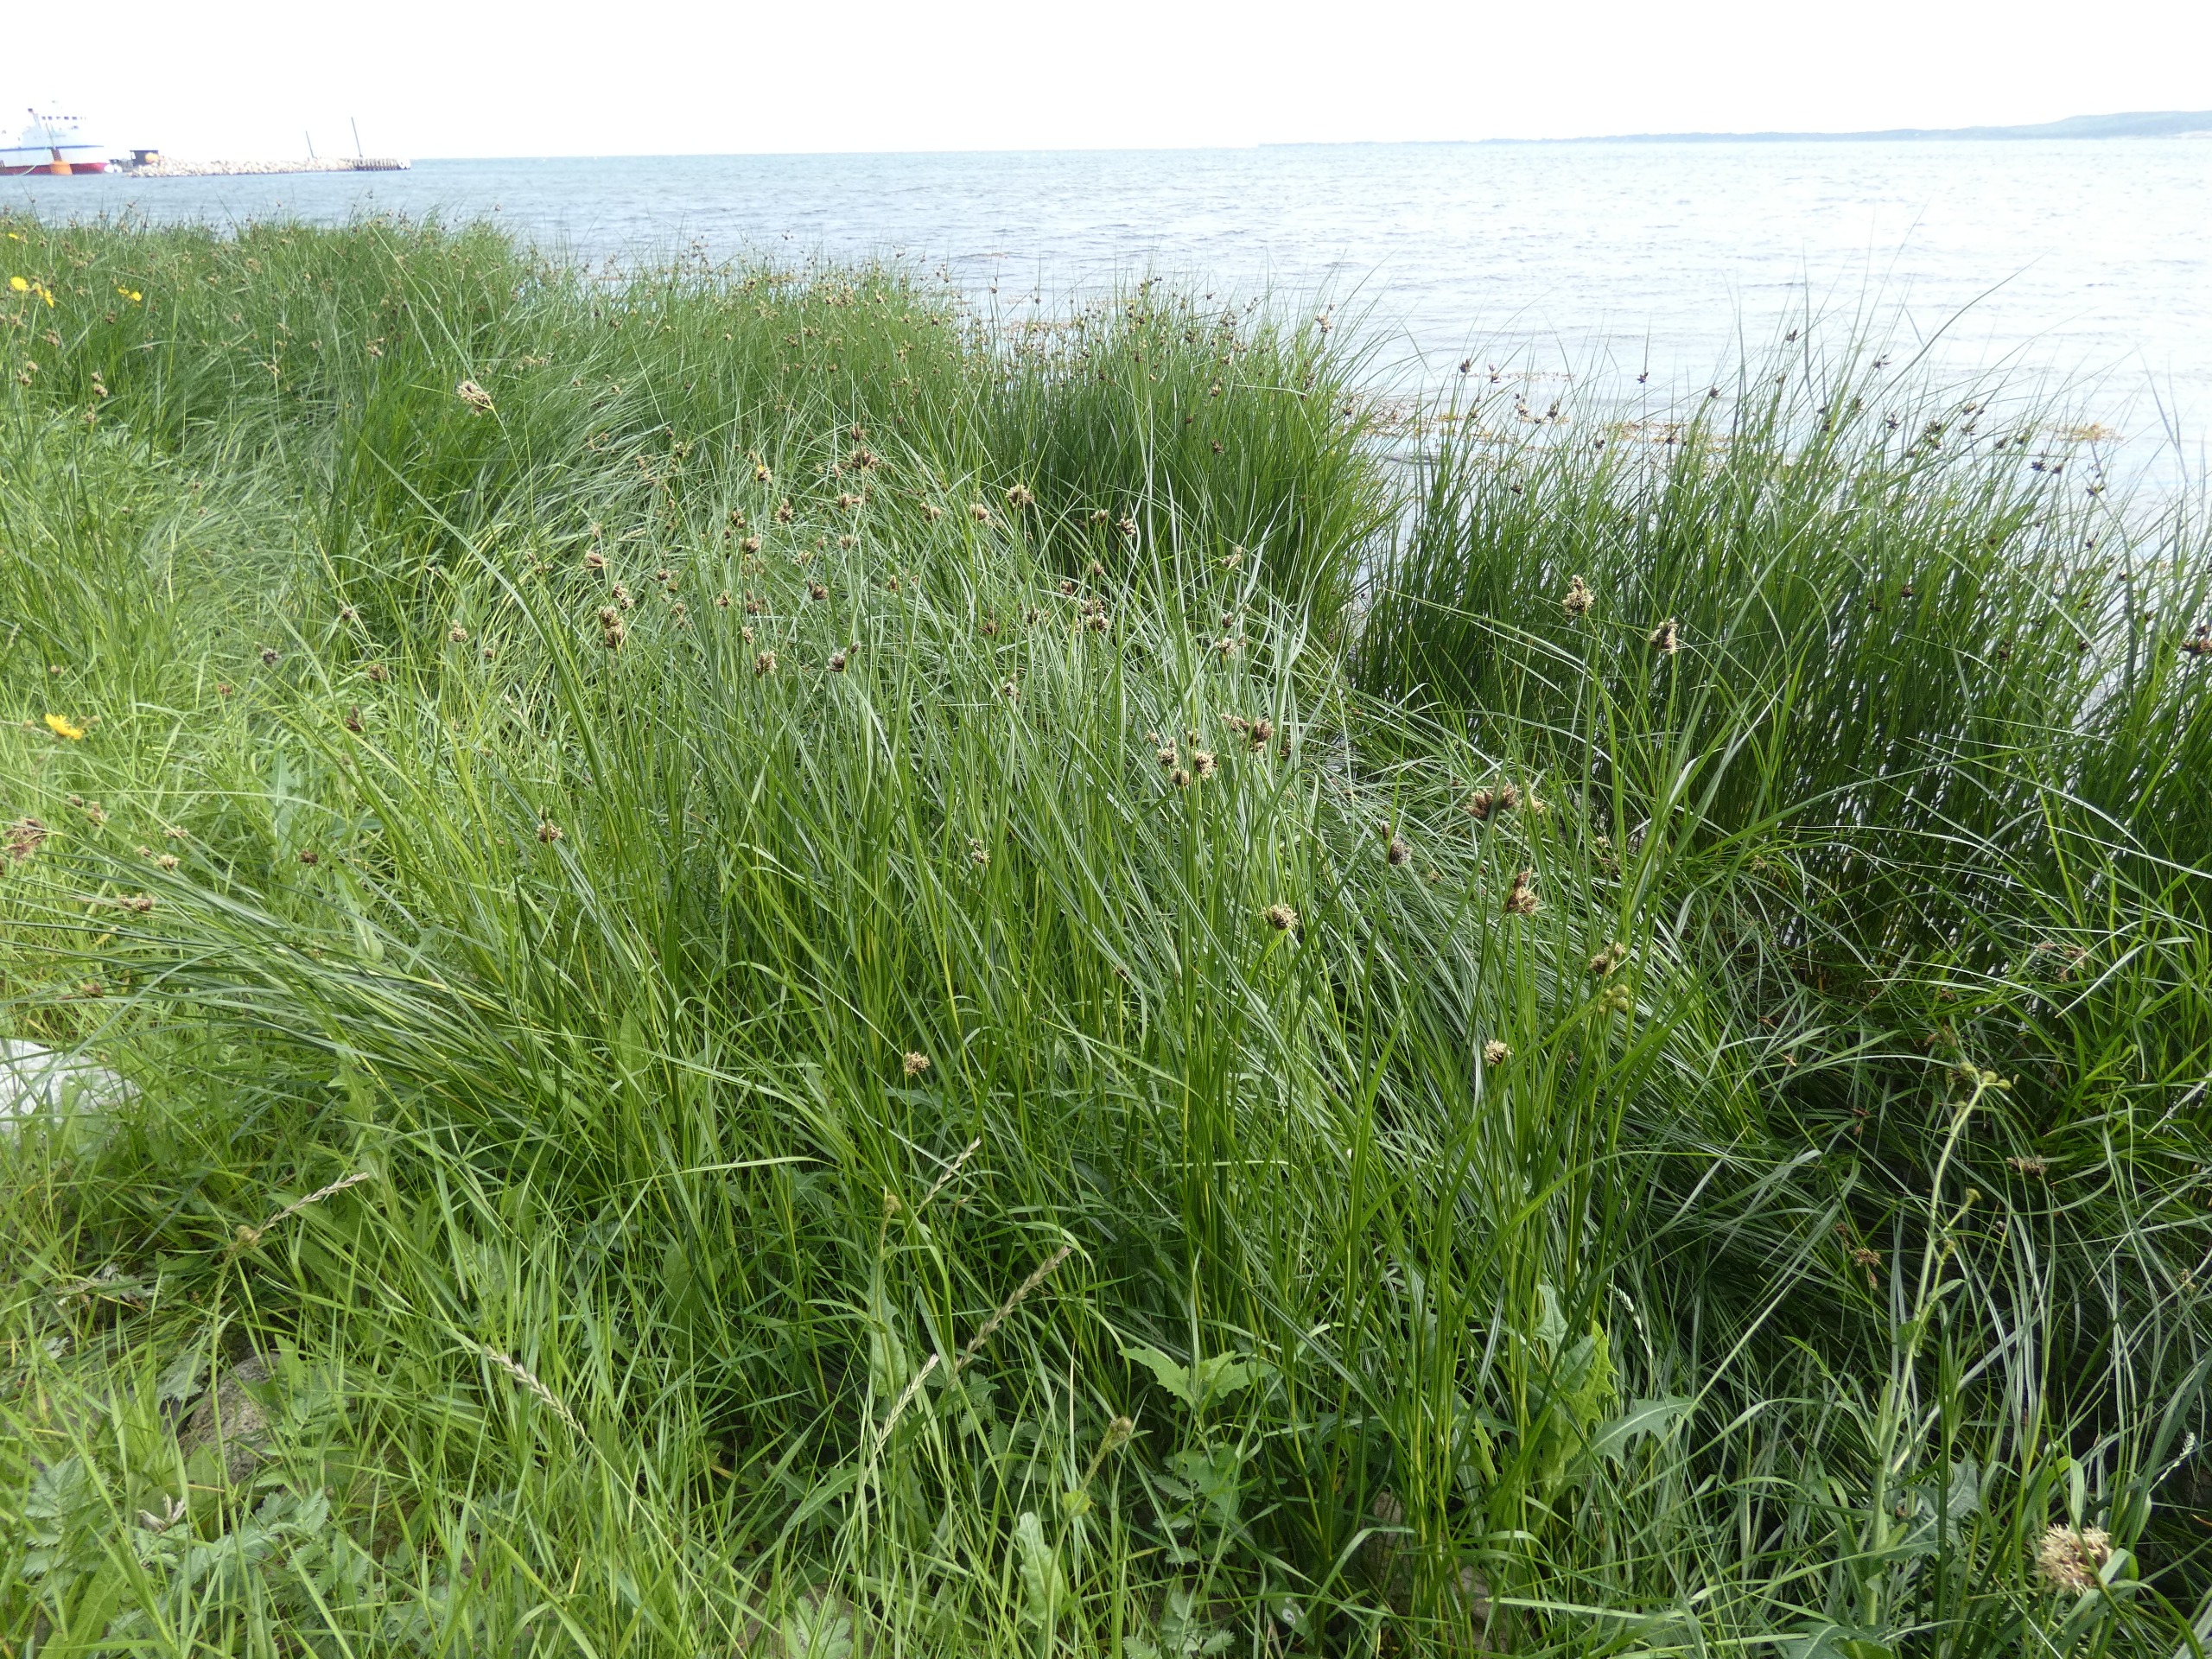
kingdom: Plantae
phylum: Tracheophyta
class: Liliopsida
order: Poales
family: Cyperaceae
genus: Bolboschoenus
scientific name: Bolboschoenus maritimus
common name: Strand-kogleaks
